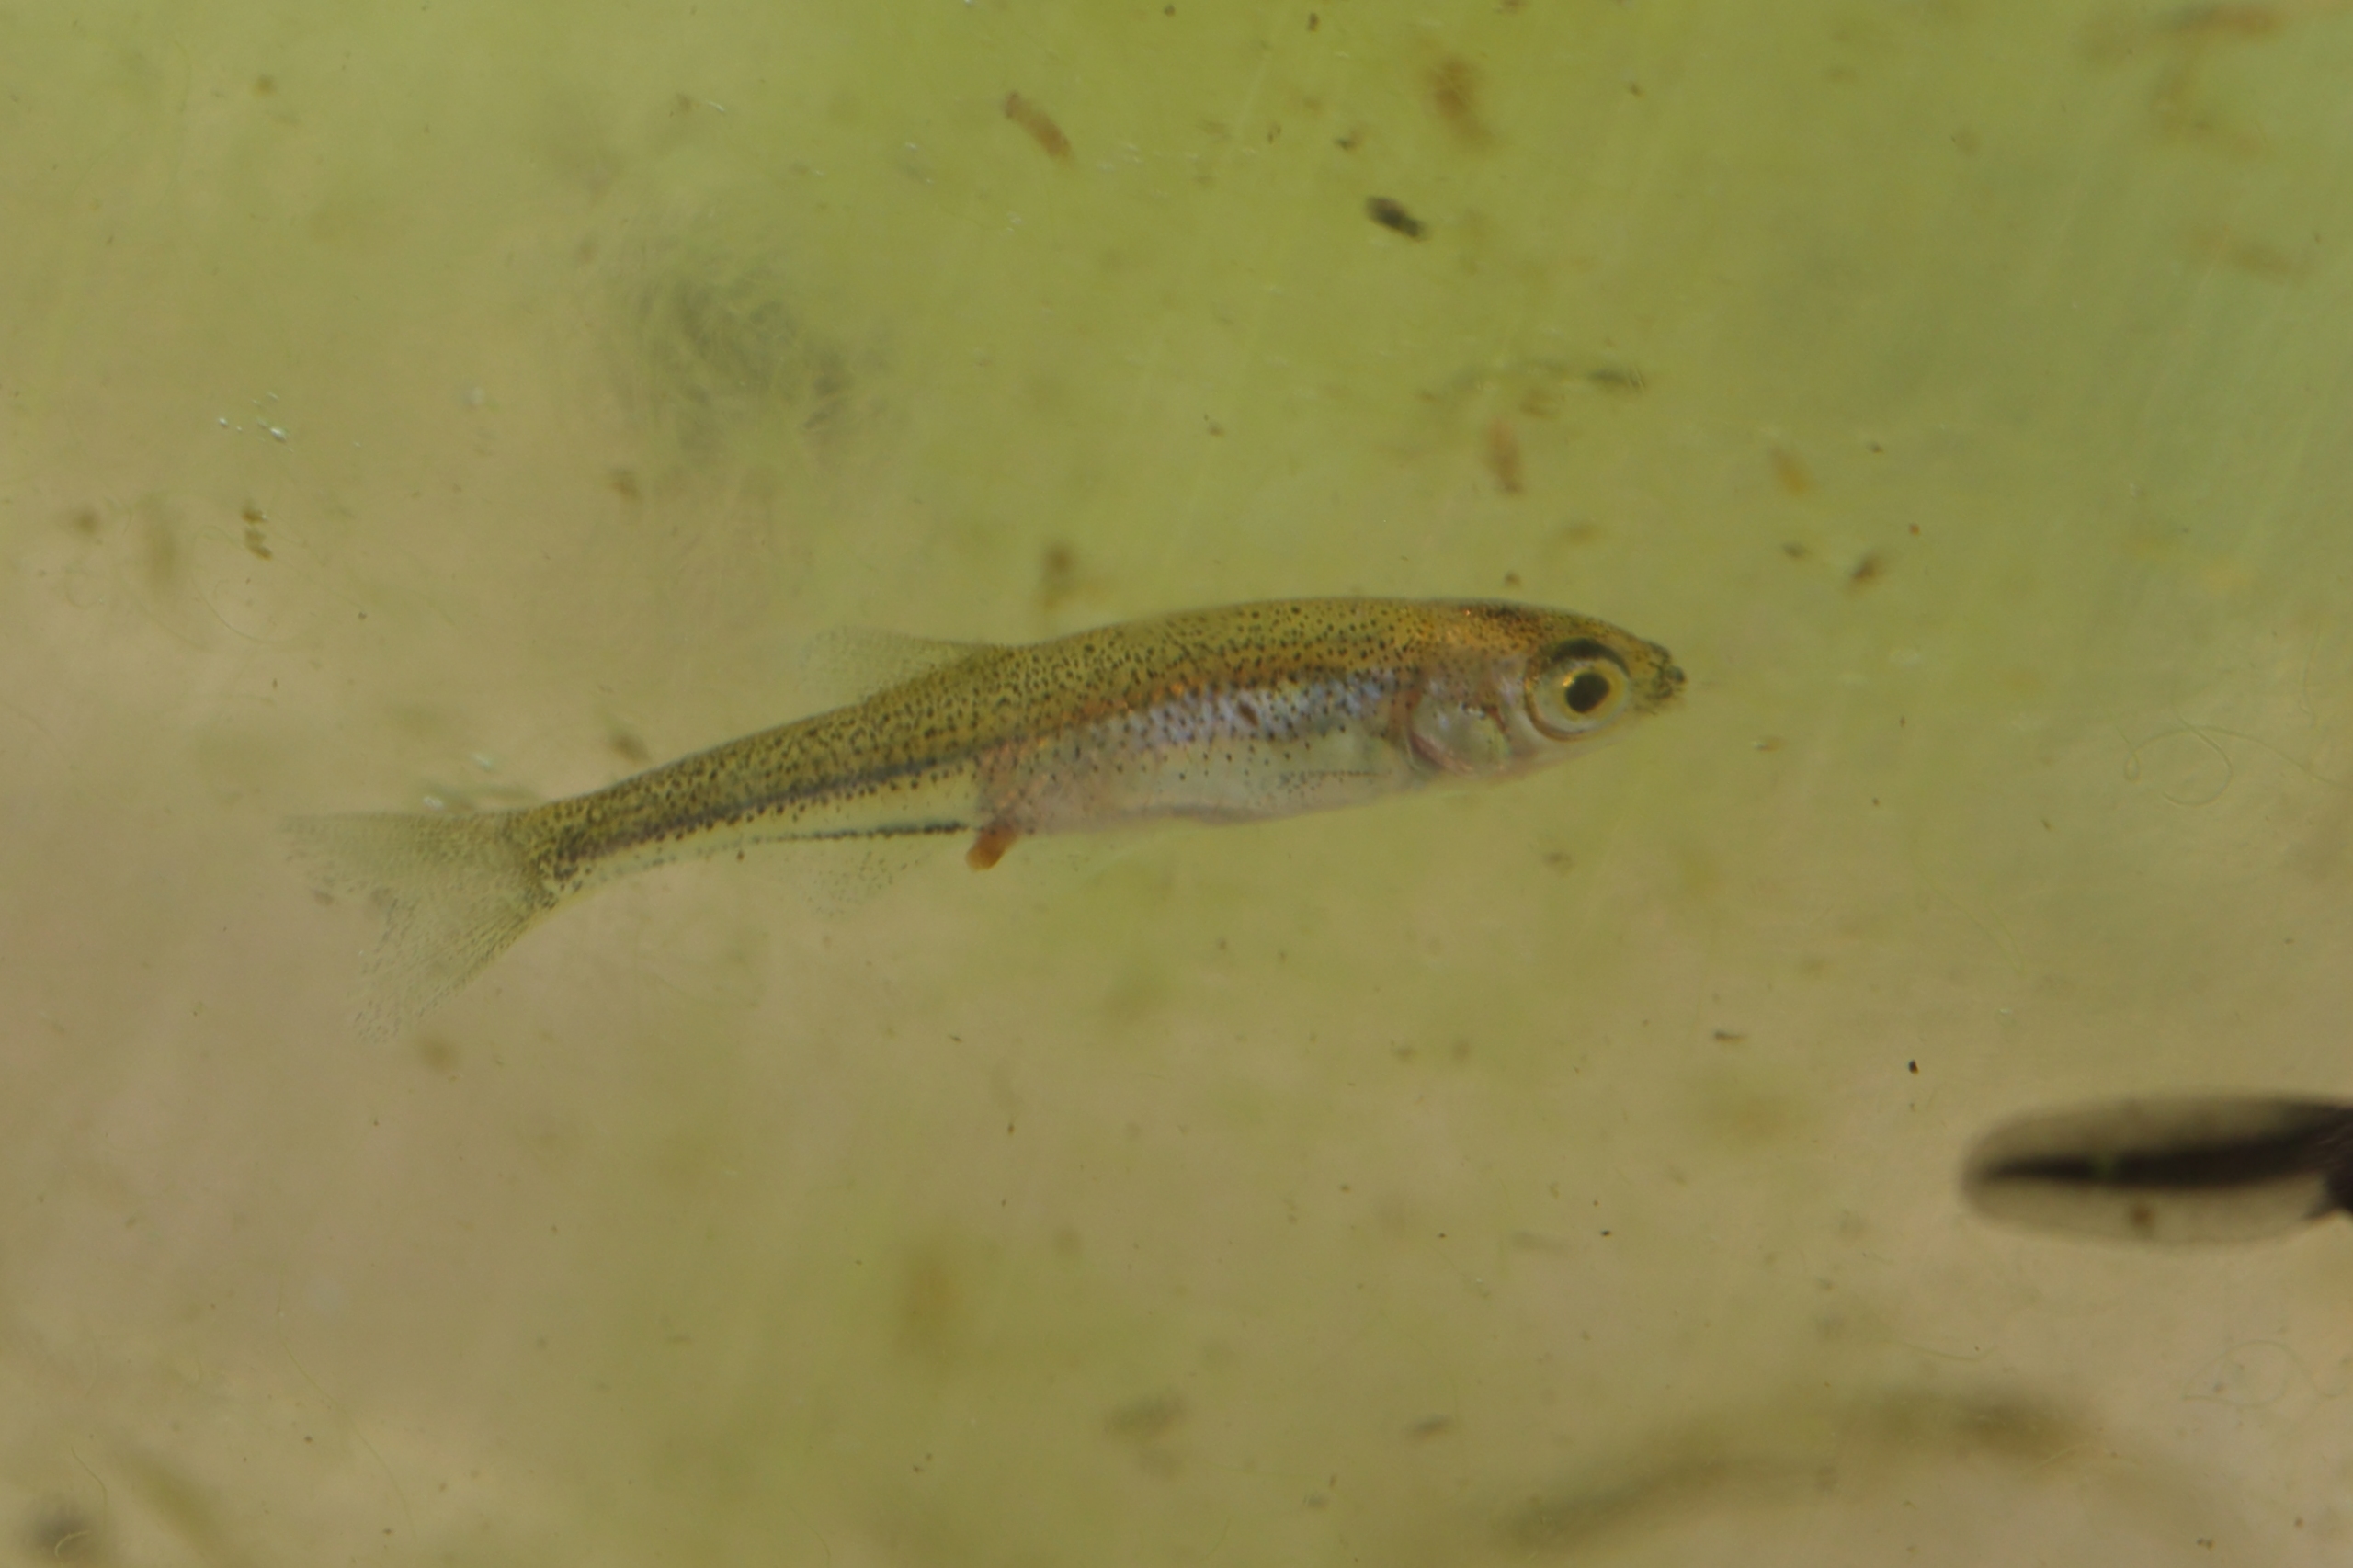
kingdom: Animalia
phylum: Chordata
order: Cypriniformes
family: Cyprinidae
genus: Leucaspius
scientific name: Leucaspius delineatus
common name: Regnløje
